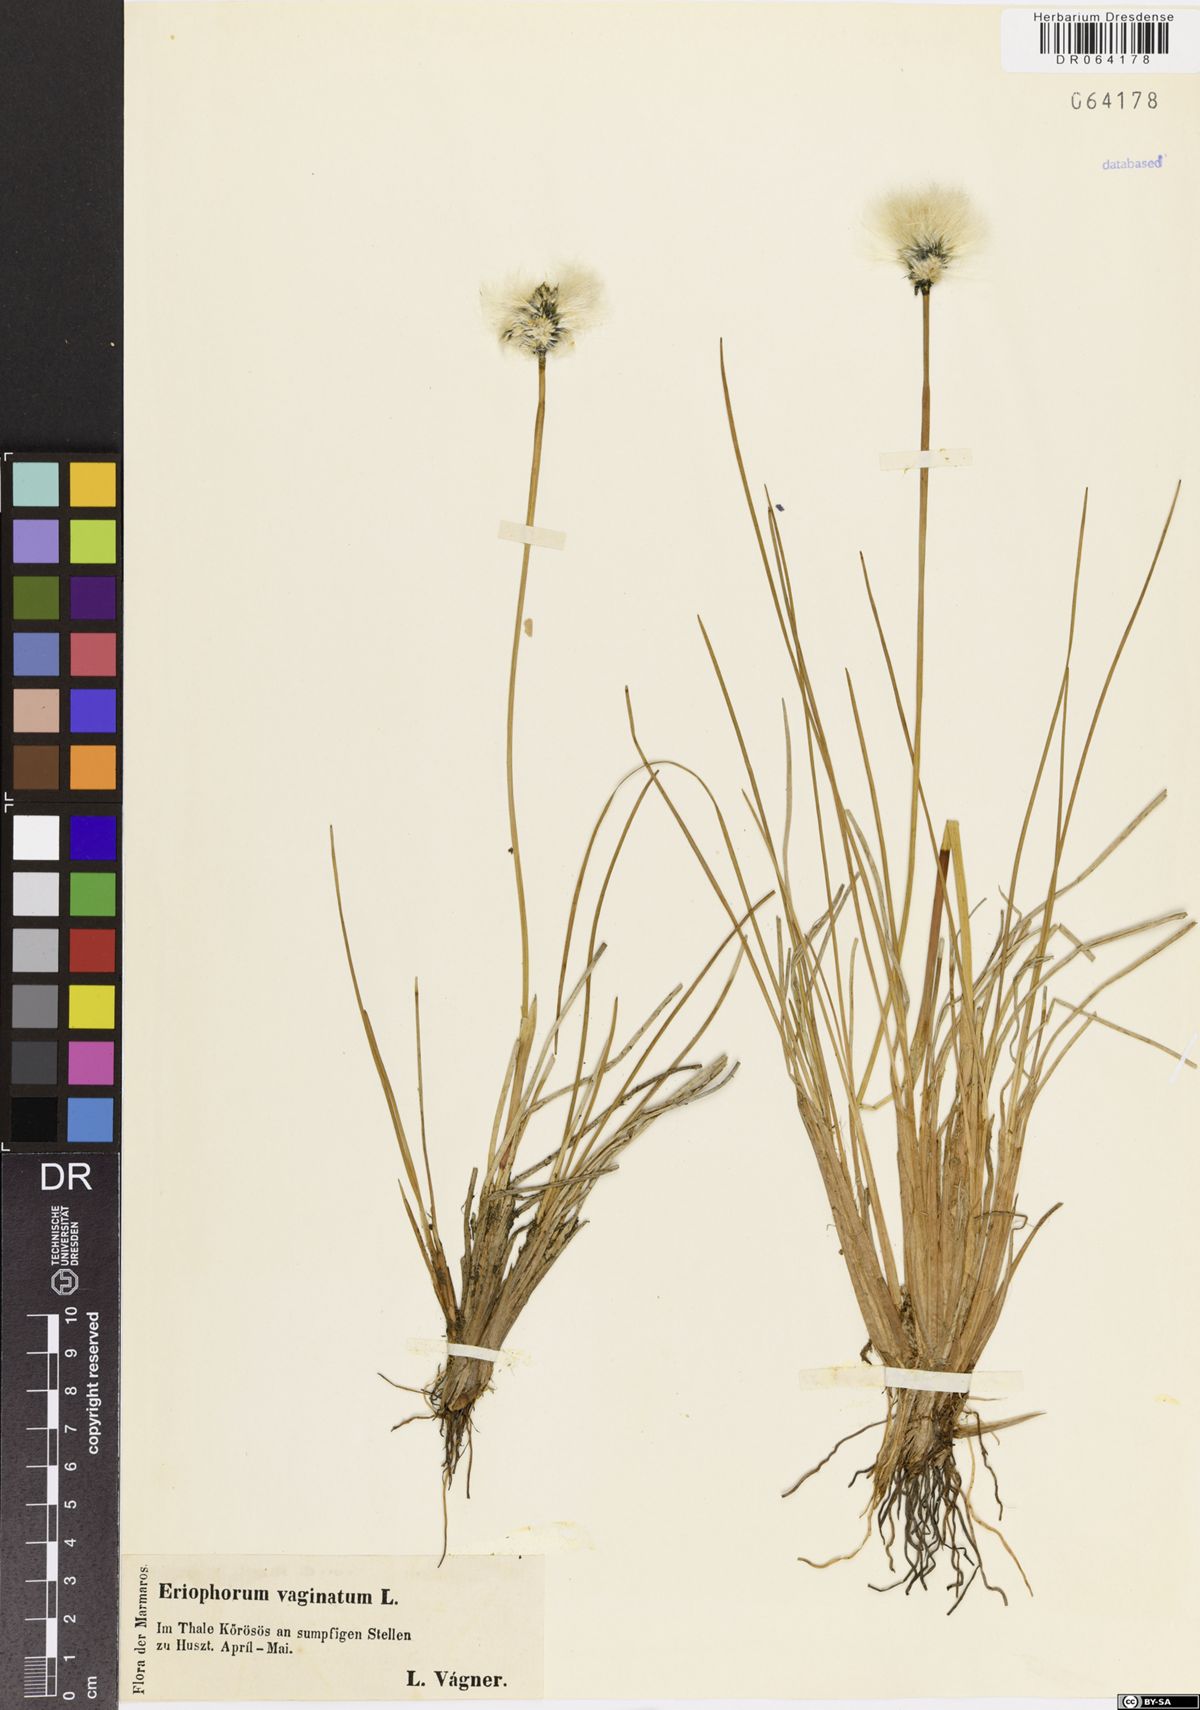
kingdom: Plantae
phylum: Tracheophyta
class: Liliopsida
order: Poales
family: Cyperaceae
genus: Eriophorum
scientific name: Eriophorum vaginatum
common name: Hare's-tail cottongrass
